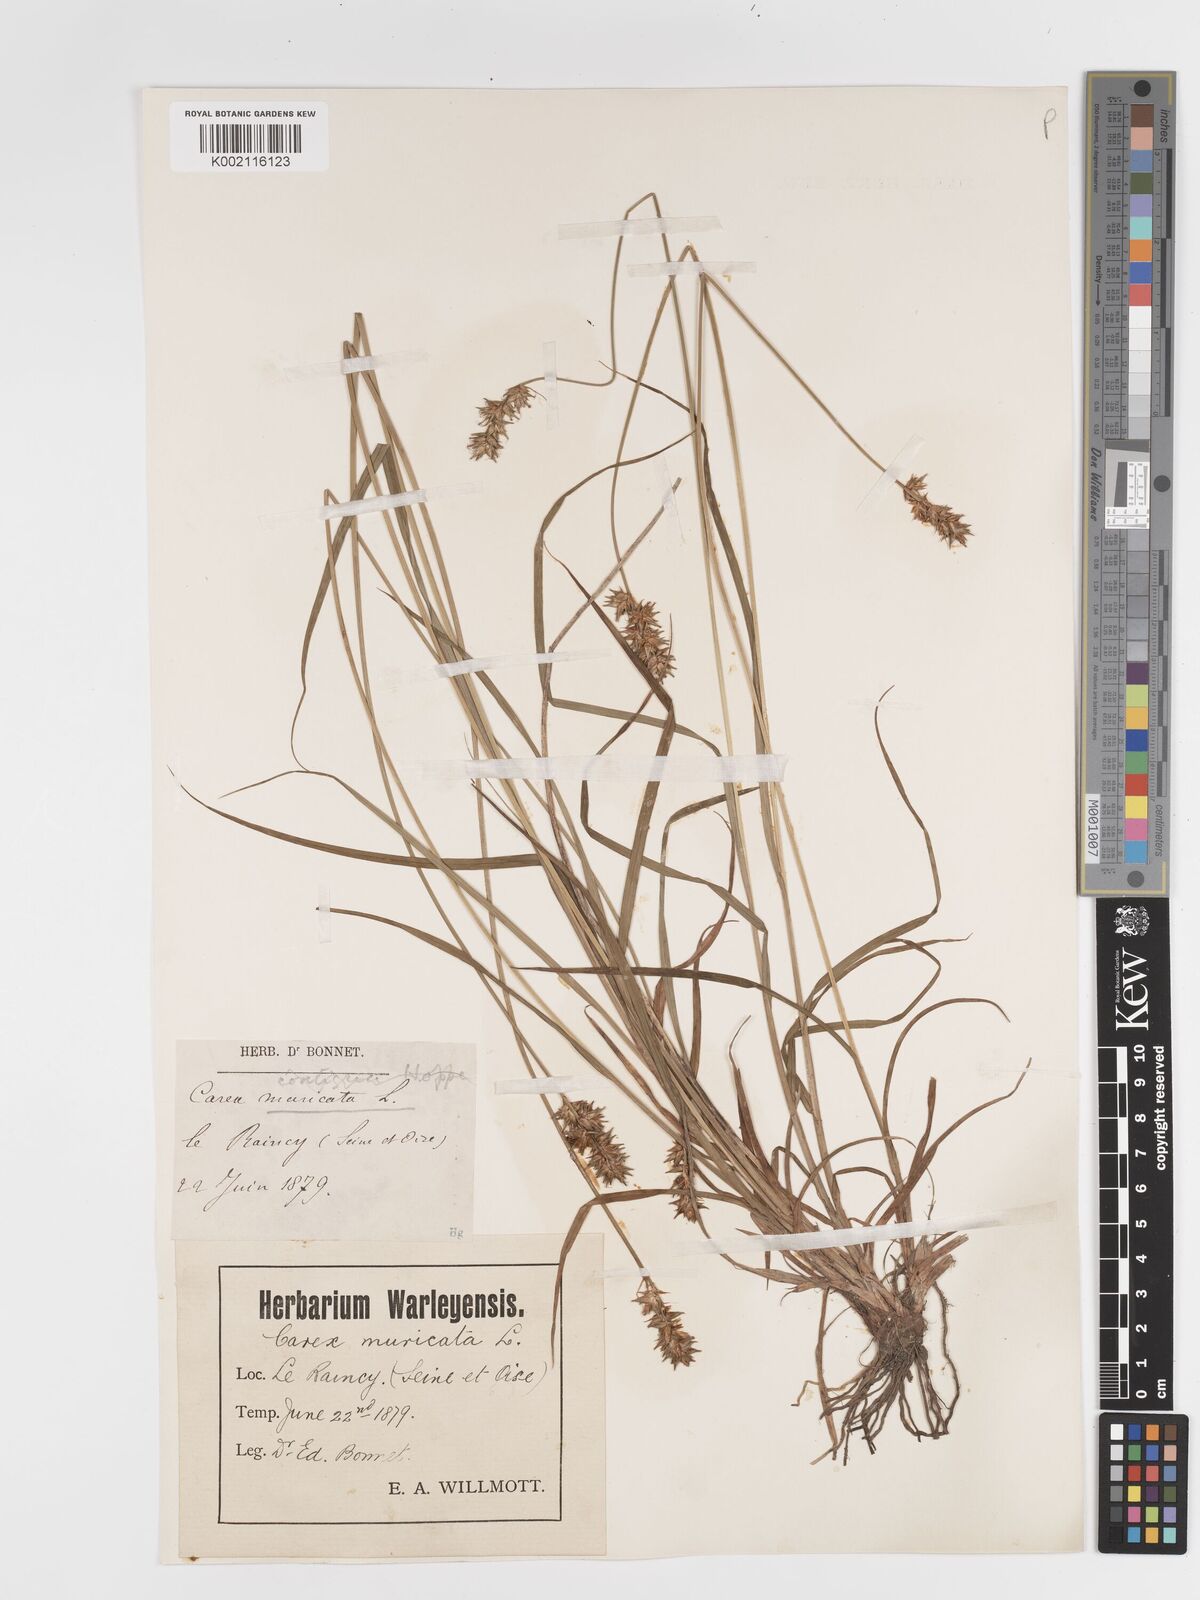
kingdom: Plantae
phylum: Tracheophyta
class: Liliopsida
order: Poales
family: Cyperaceae
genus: Carex
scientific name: Carex spicata
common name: Spiked sedge
